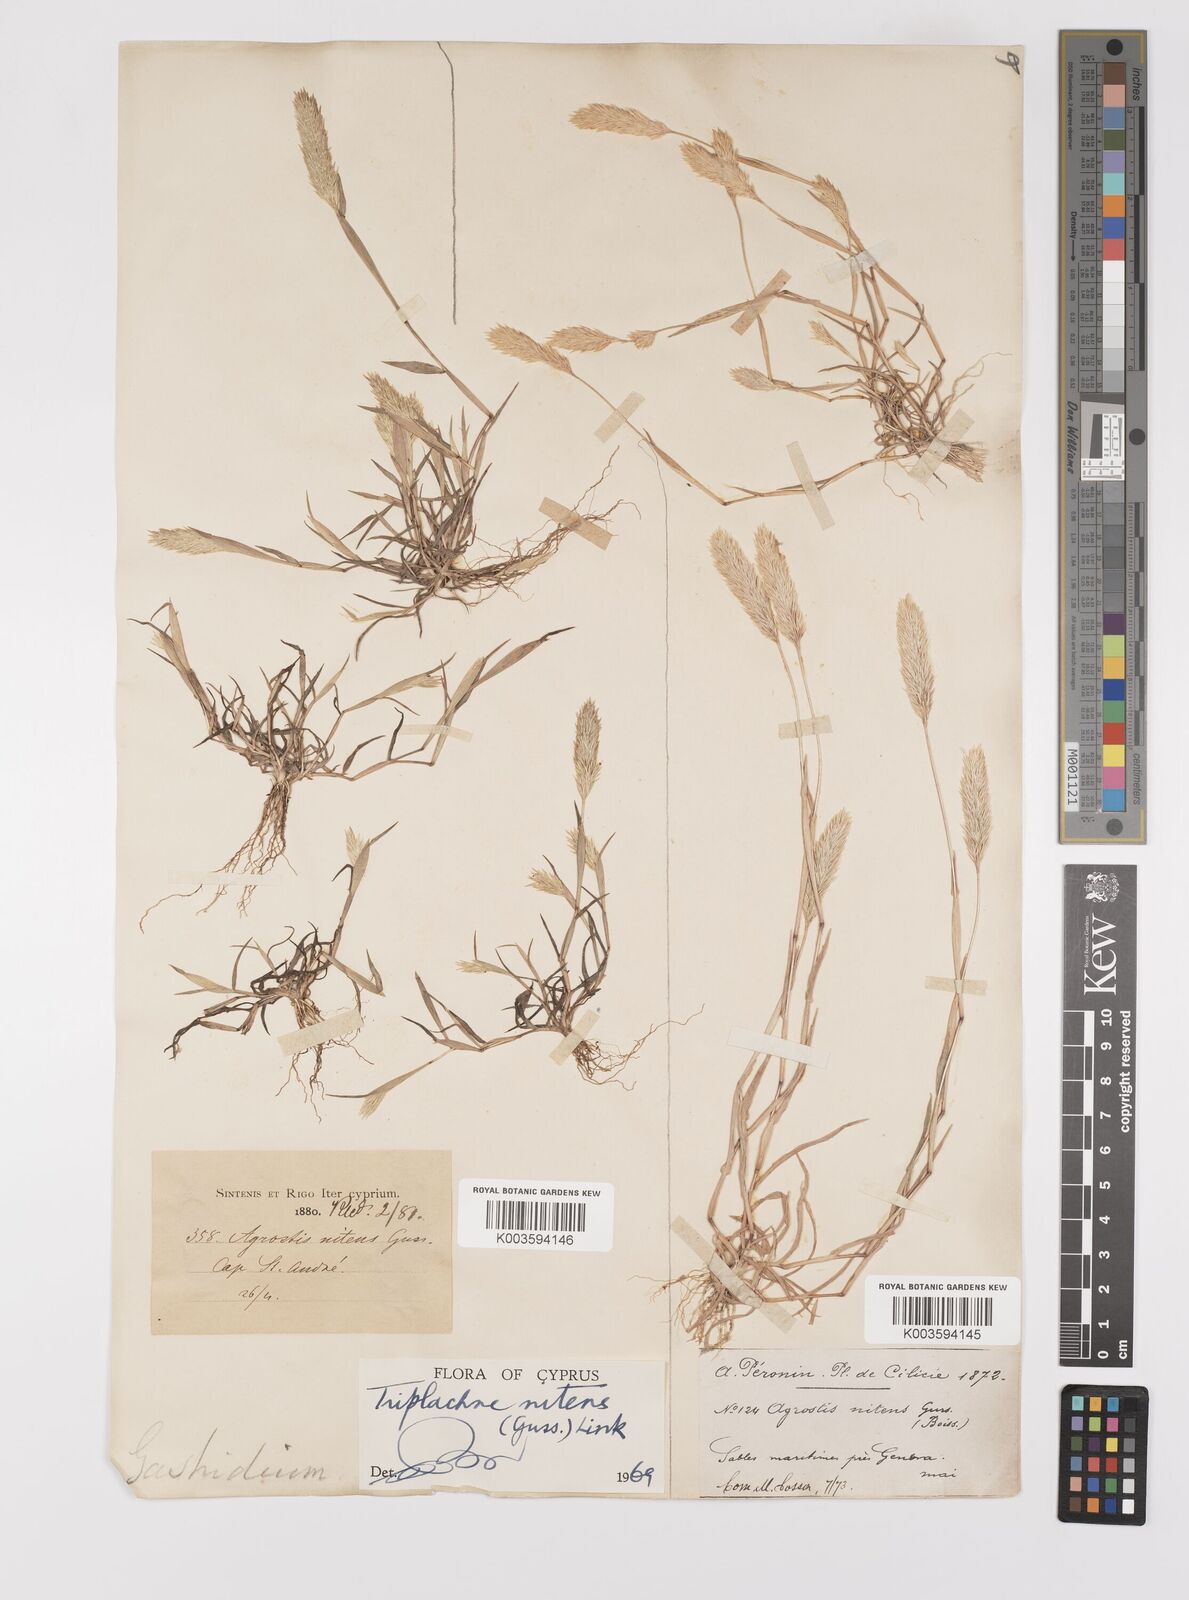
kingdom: Plantae
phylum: Tracheophyta
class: Liliopsida
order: Poales
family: Poaceae
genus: Triplachne
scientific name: Triplachne nitens
